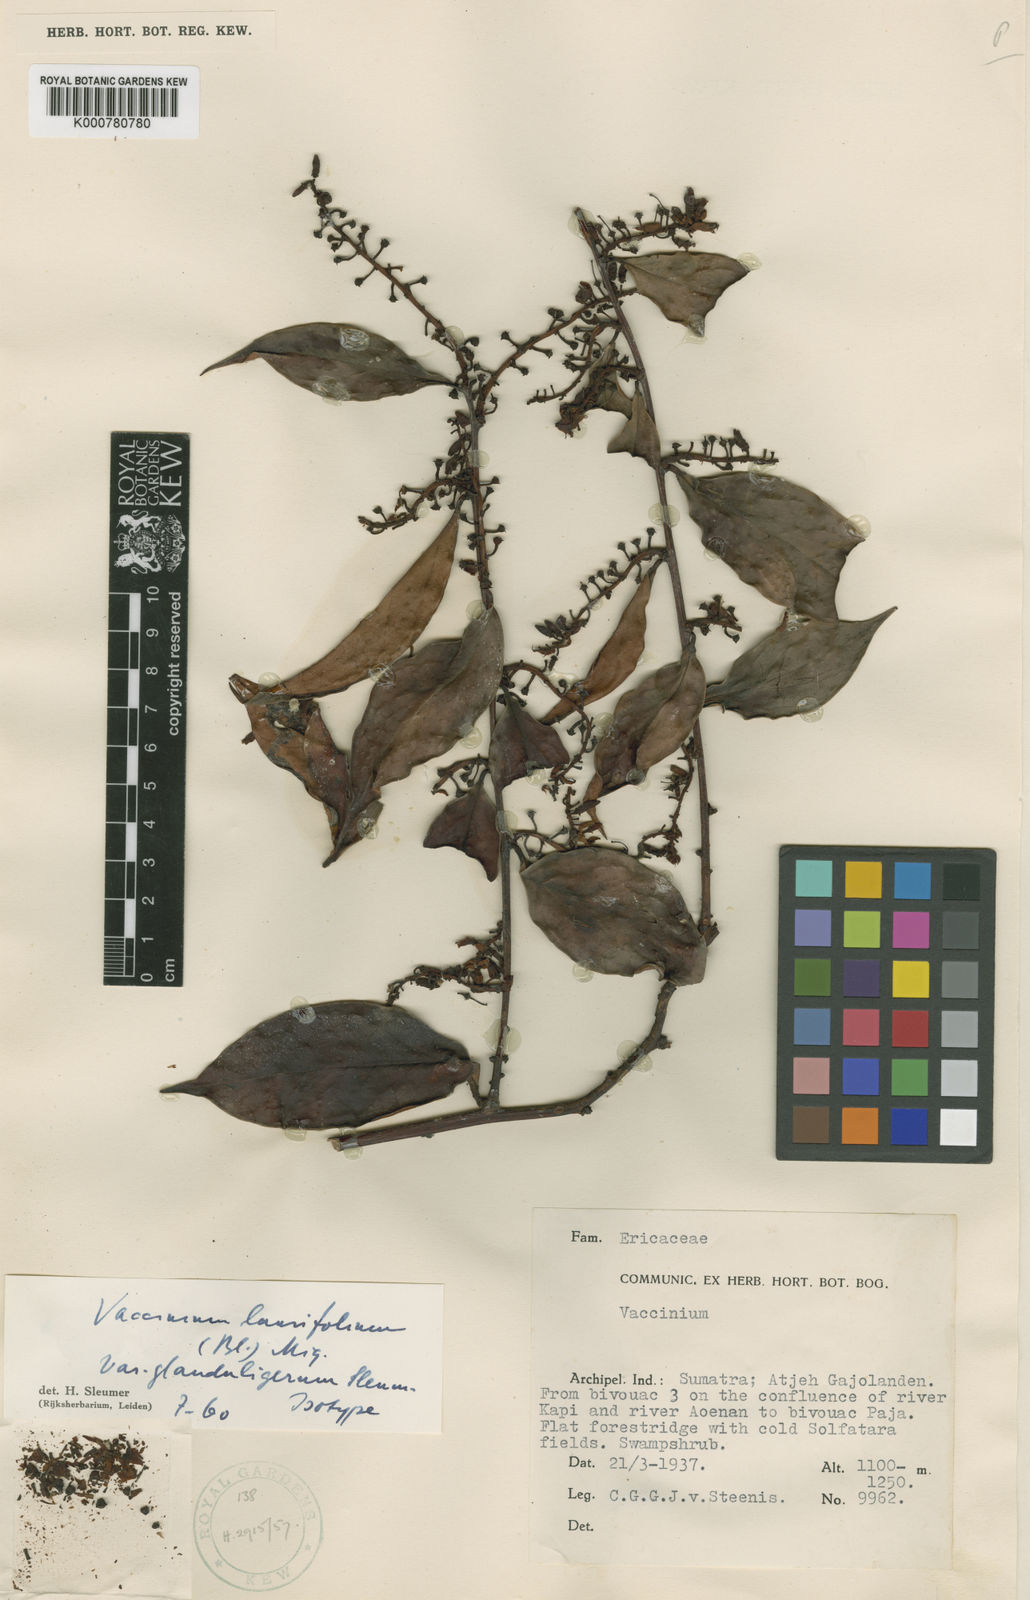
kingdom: Plantae
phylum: Tracheophyta
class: Magnoliopsida
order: Ericales
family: Ericaceae
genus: Vaccinium
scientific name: Vaccinium laurifolium
